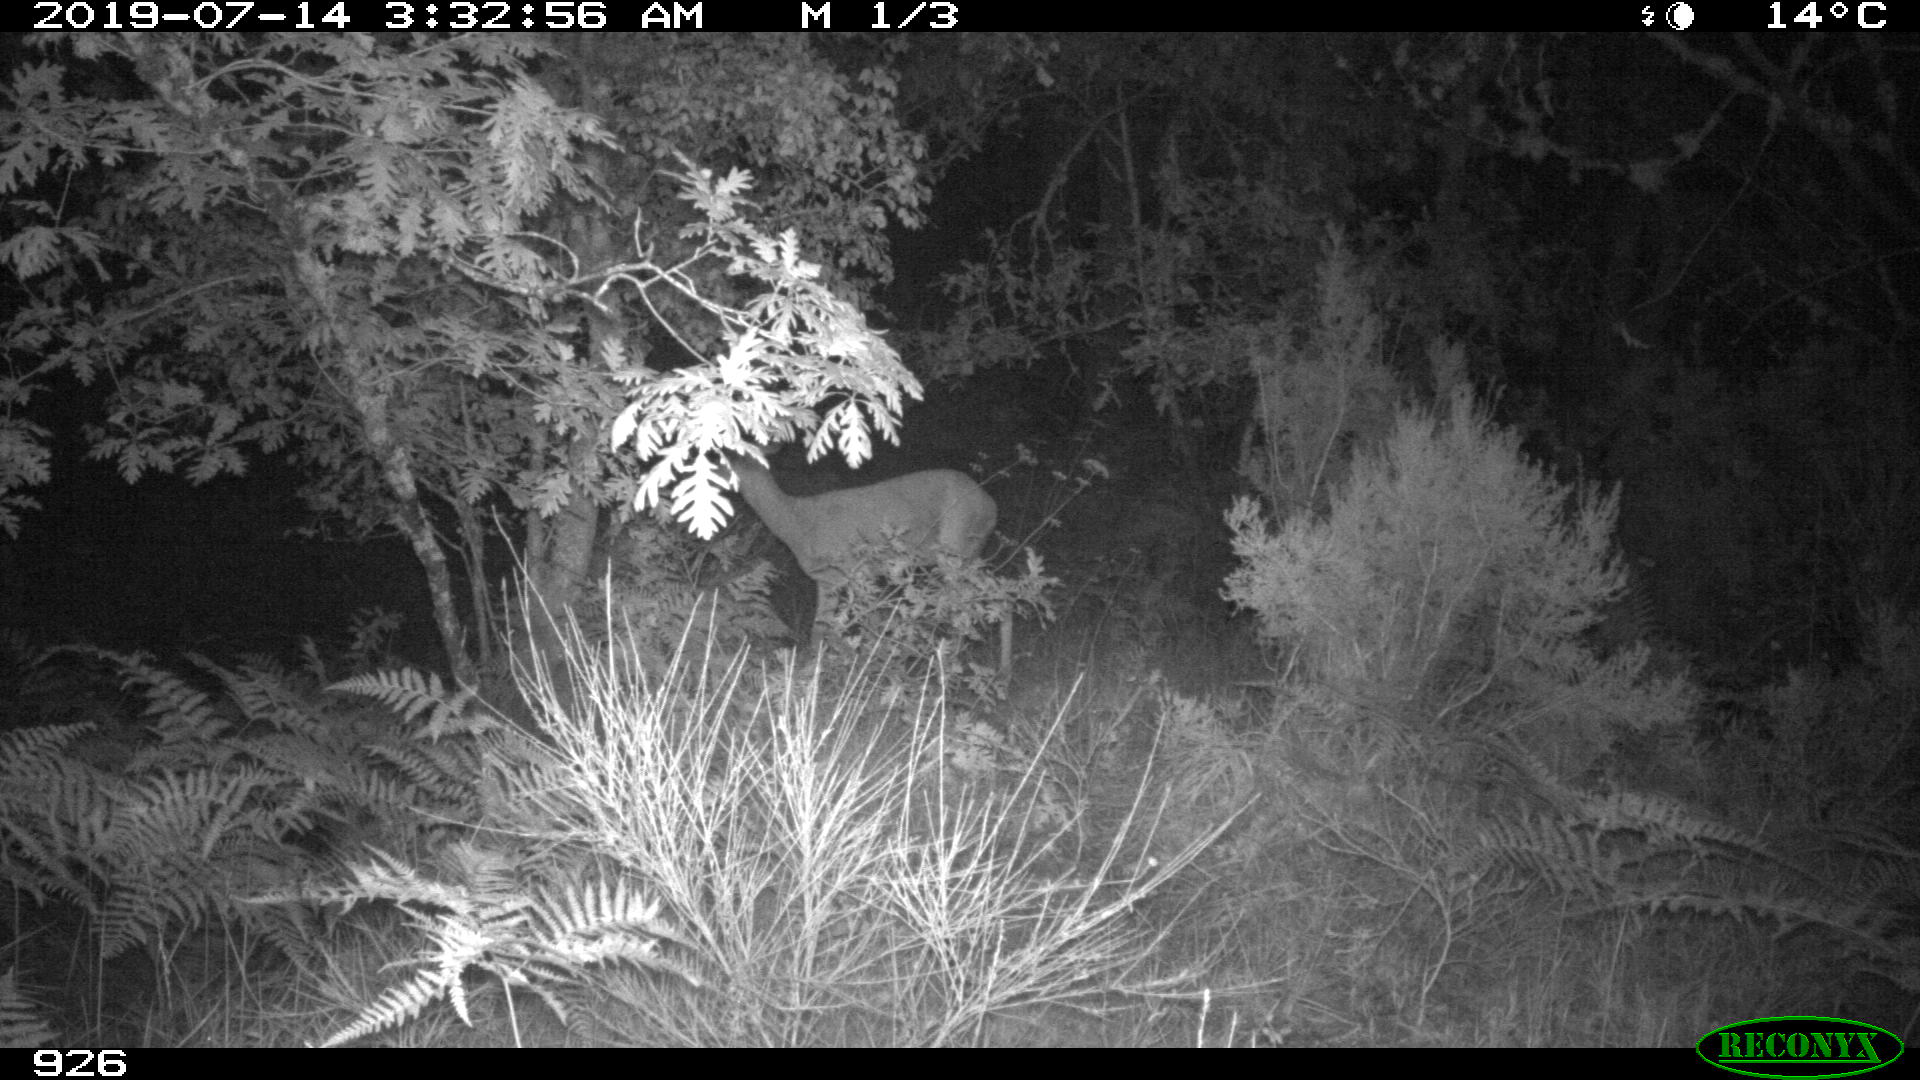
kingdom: Animalia
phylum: Chordata
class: Mammalia
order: Artiodactyla
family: Cervidae
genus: Capreolus
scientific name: Capreolus capreolus
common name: Western roe deer
